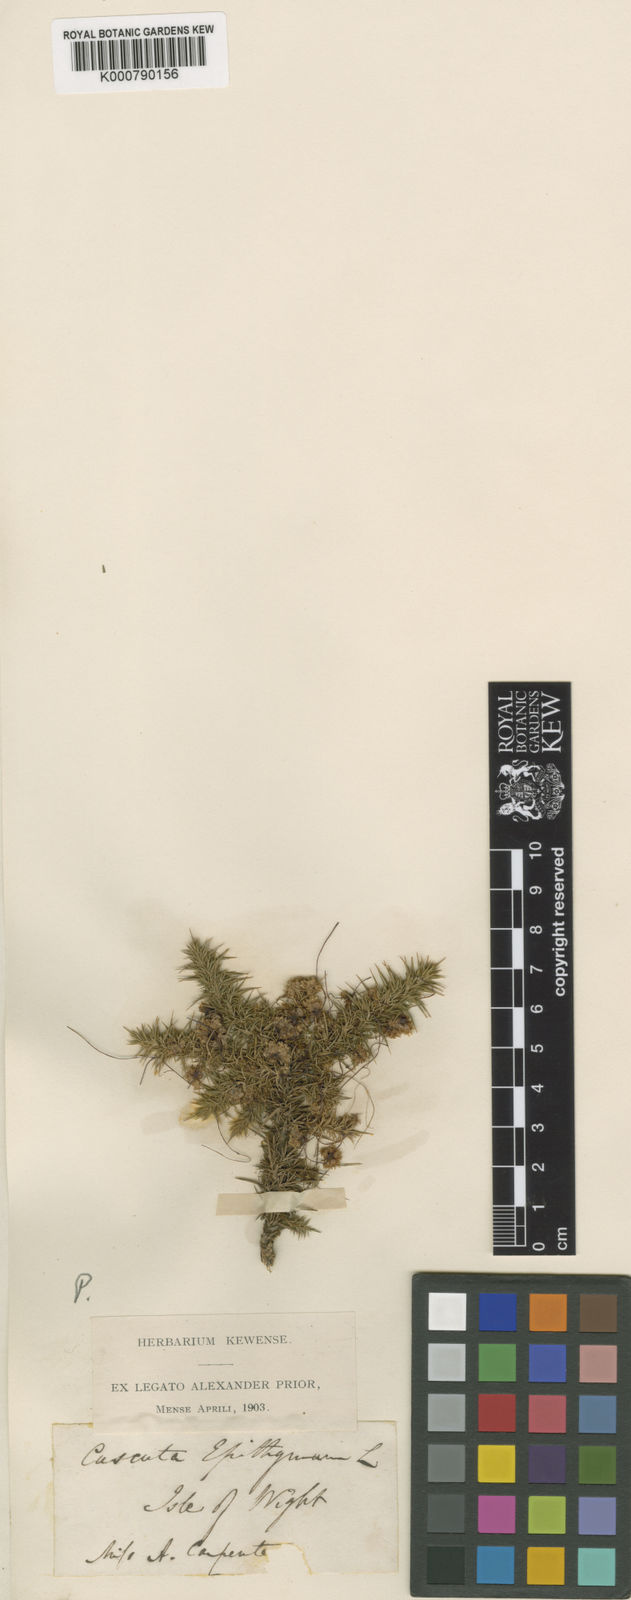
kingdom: Plantae
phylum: Tracheophyta
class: Magnoliopsida
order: Solanales
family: Convolvulaceae
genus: Cuscuta
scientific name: Cuscuta epithymum
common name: Clover dodder
